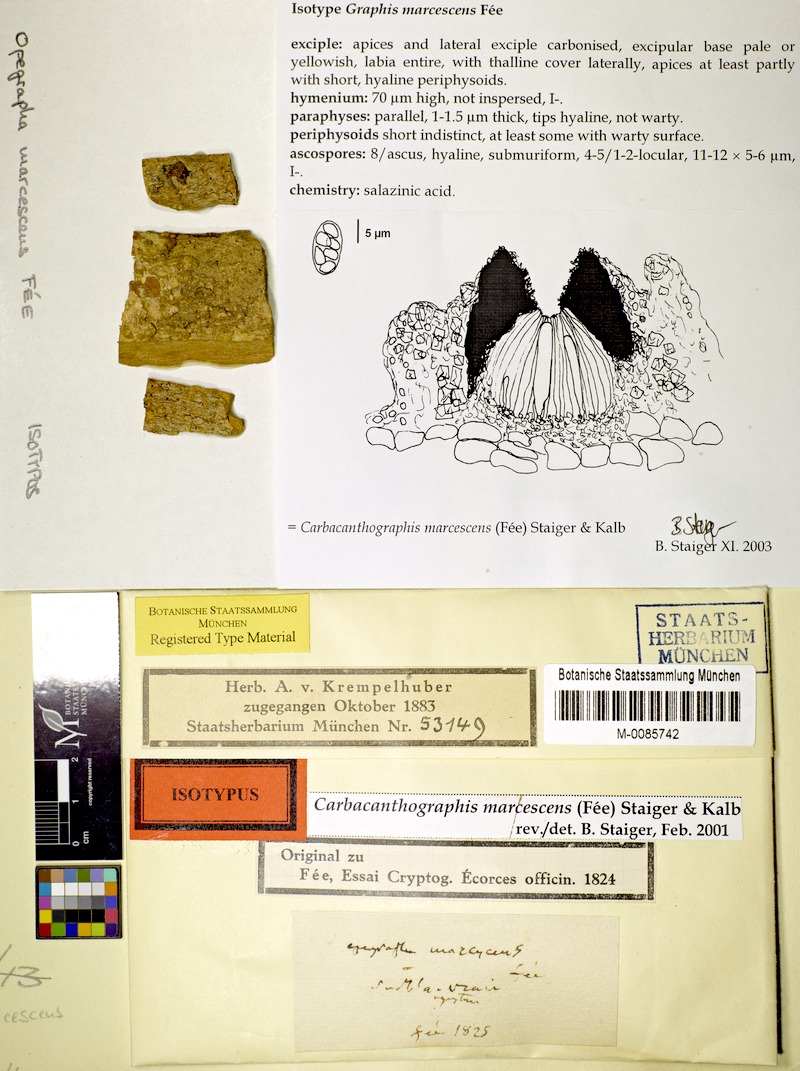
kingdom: Fungi
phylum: Ascomycota
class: Lecanoromycetes
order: Ostropales
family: Graphidaceae
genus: Graphina
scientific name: Graphina marcescens
